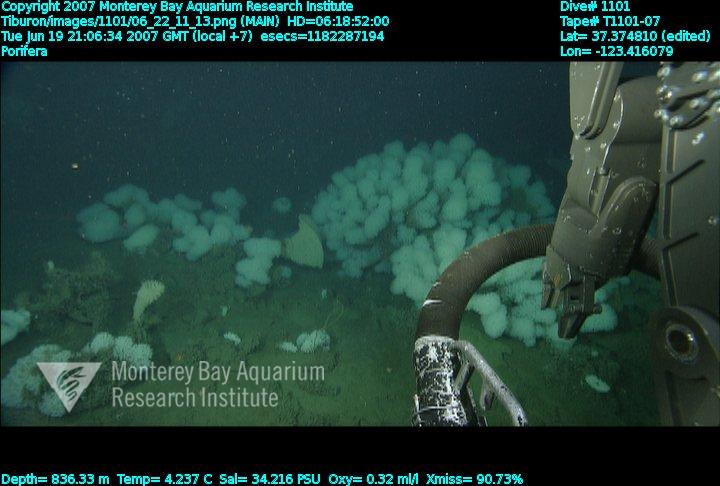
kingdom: Animalia
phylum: Porifera
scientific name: Porifera
